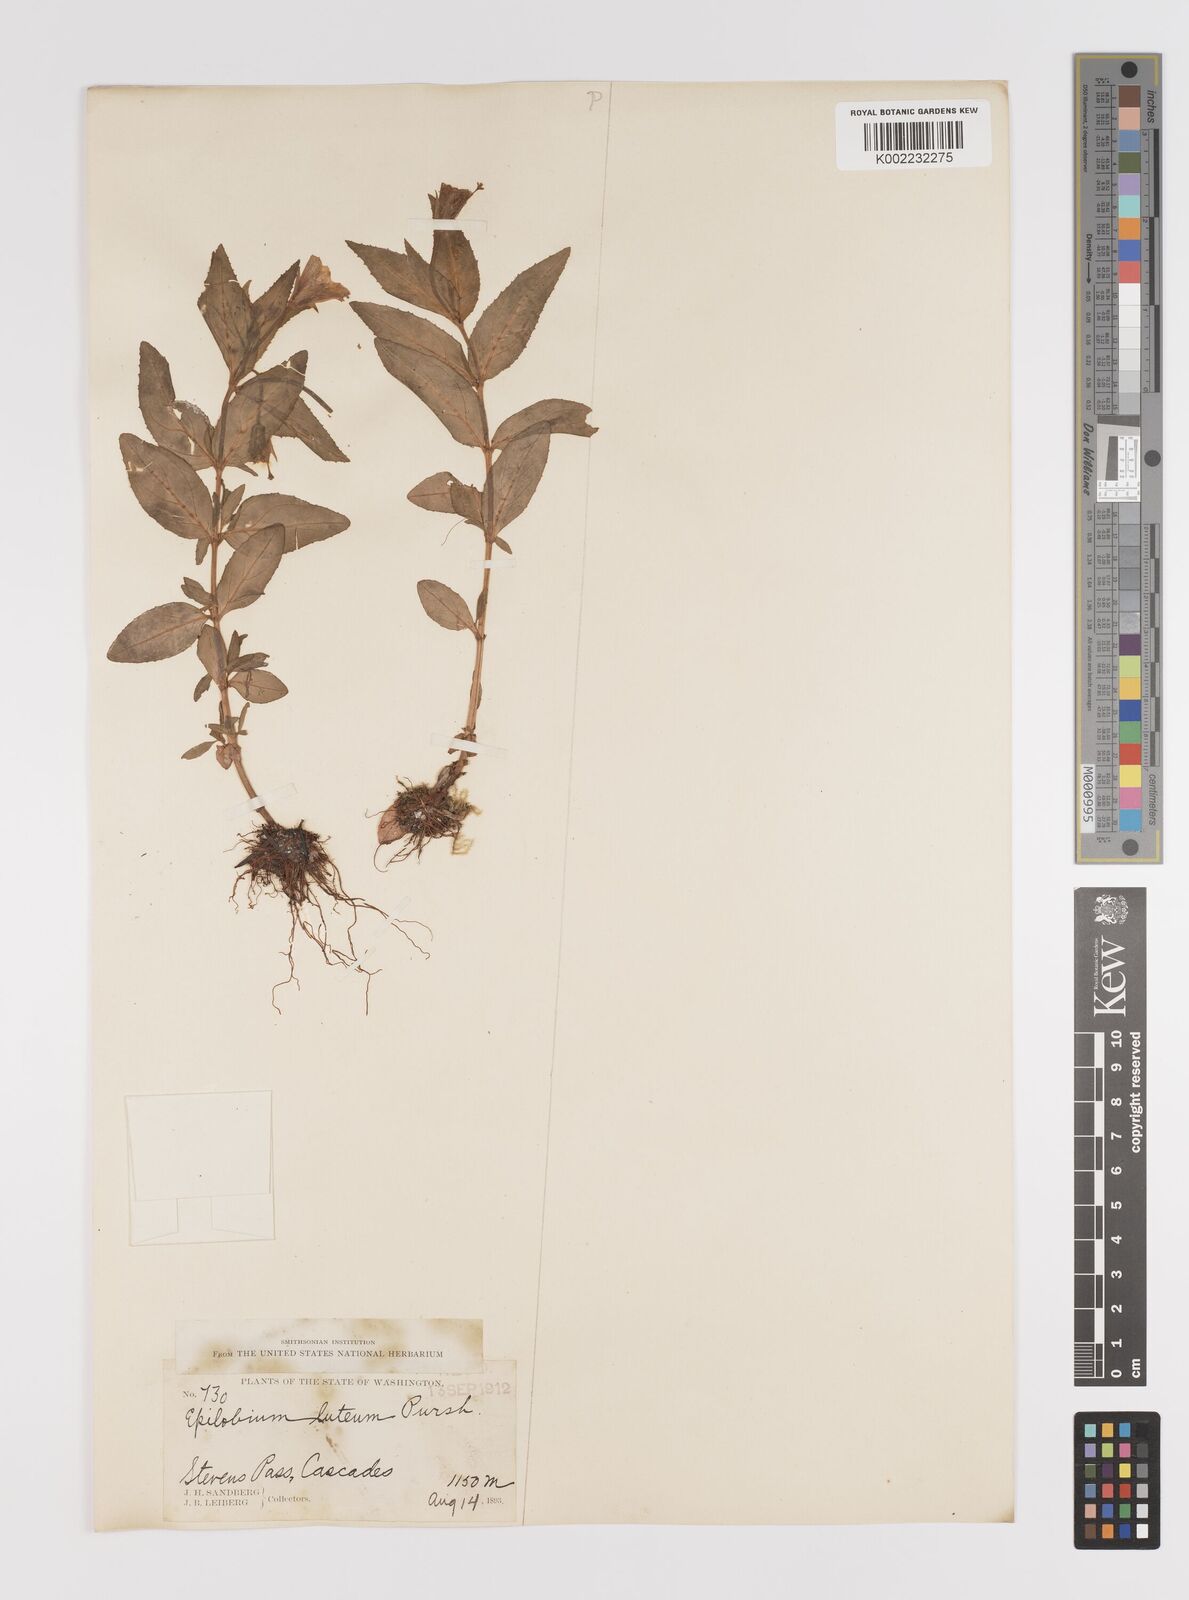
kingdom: Plantae
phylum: Tracheophyta
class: Magnoliopsida
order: Myrtales
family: Onagraceae
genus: Epilobium
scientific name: Epilobium luteum
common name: Yellow willowherb
